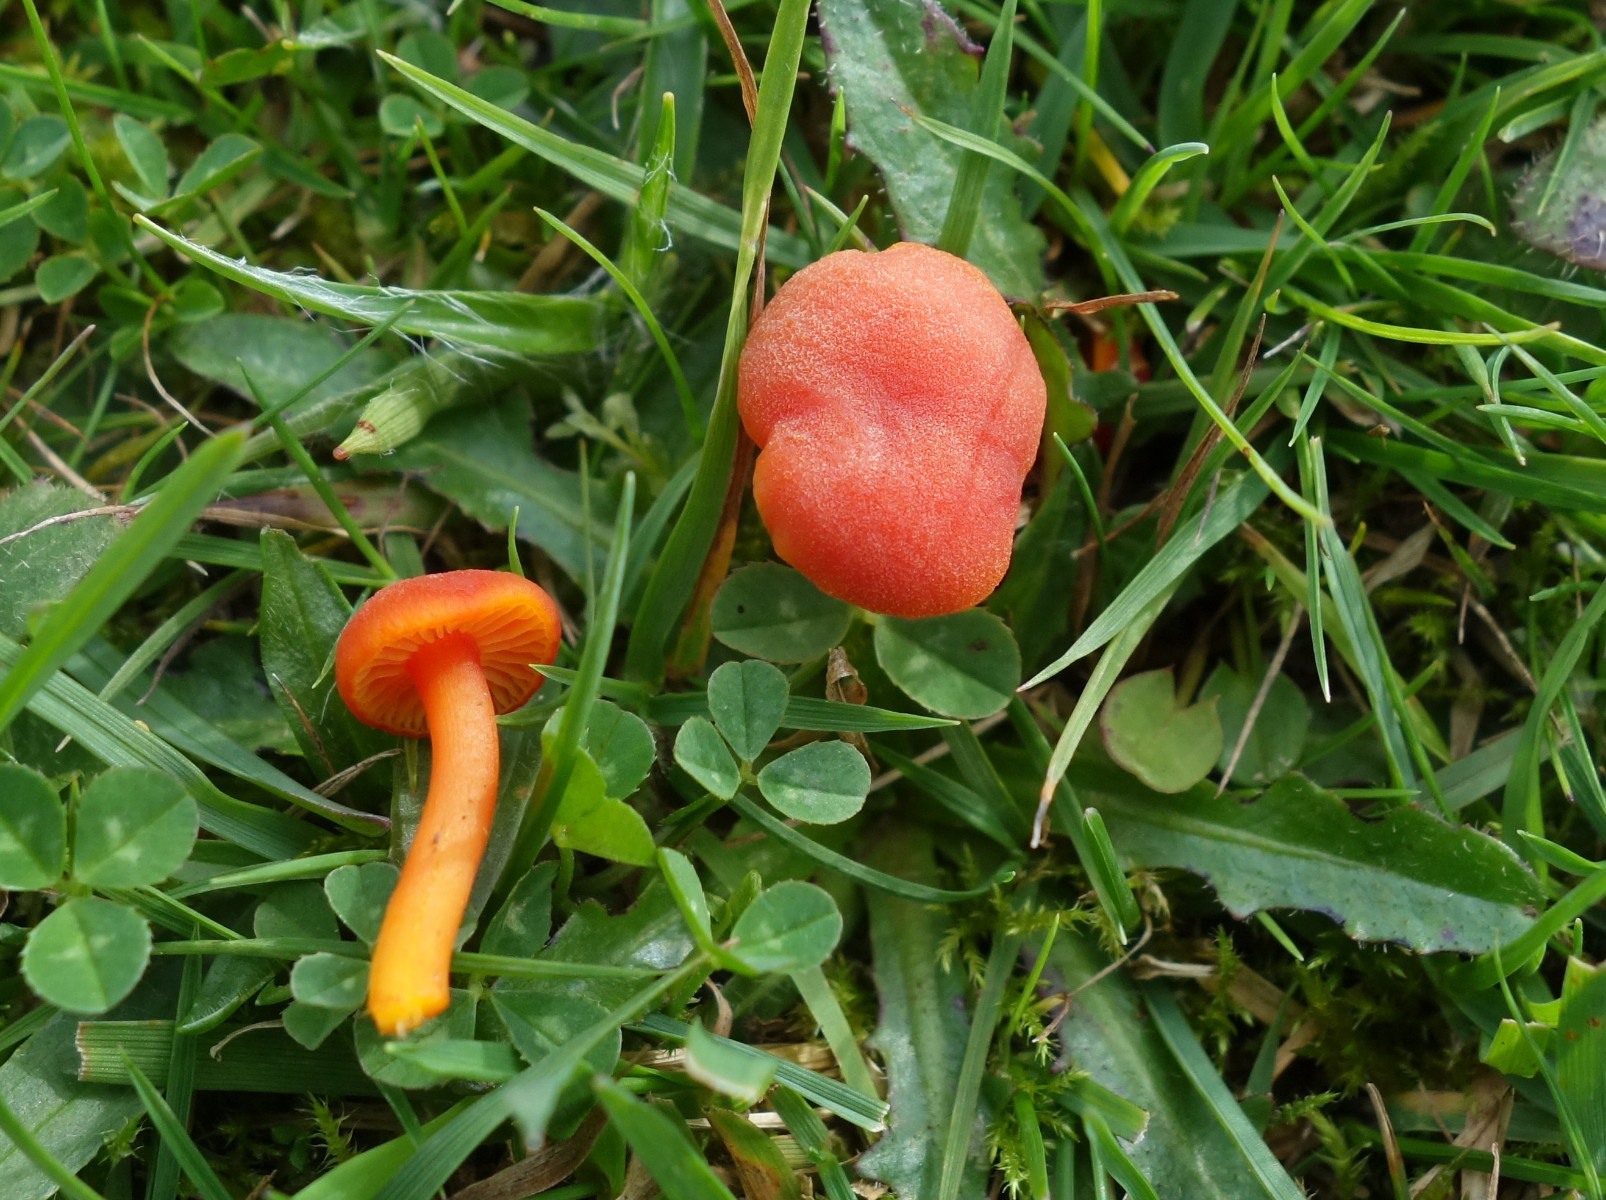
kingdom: Fungi
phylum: Basidiomycota
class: Agaricomycetes
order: Agaricales
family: Hygrophoraceae
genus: Hygrocybe
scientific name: Hygrocybe miniata
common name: mønje-vokshat
